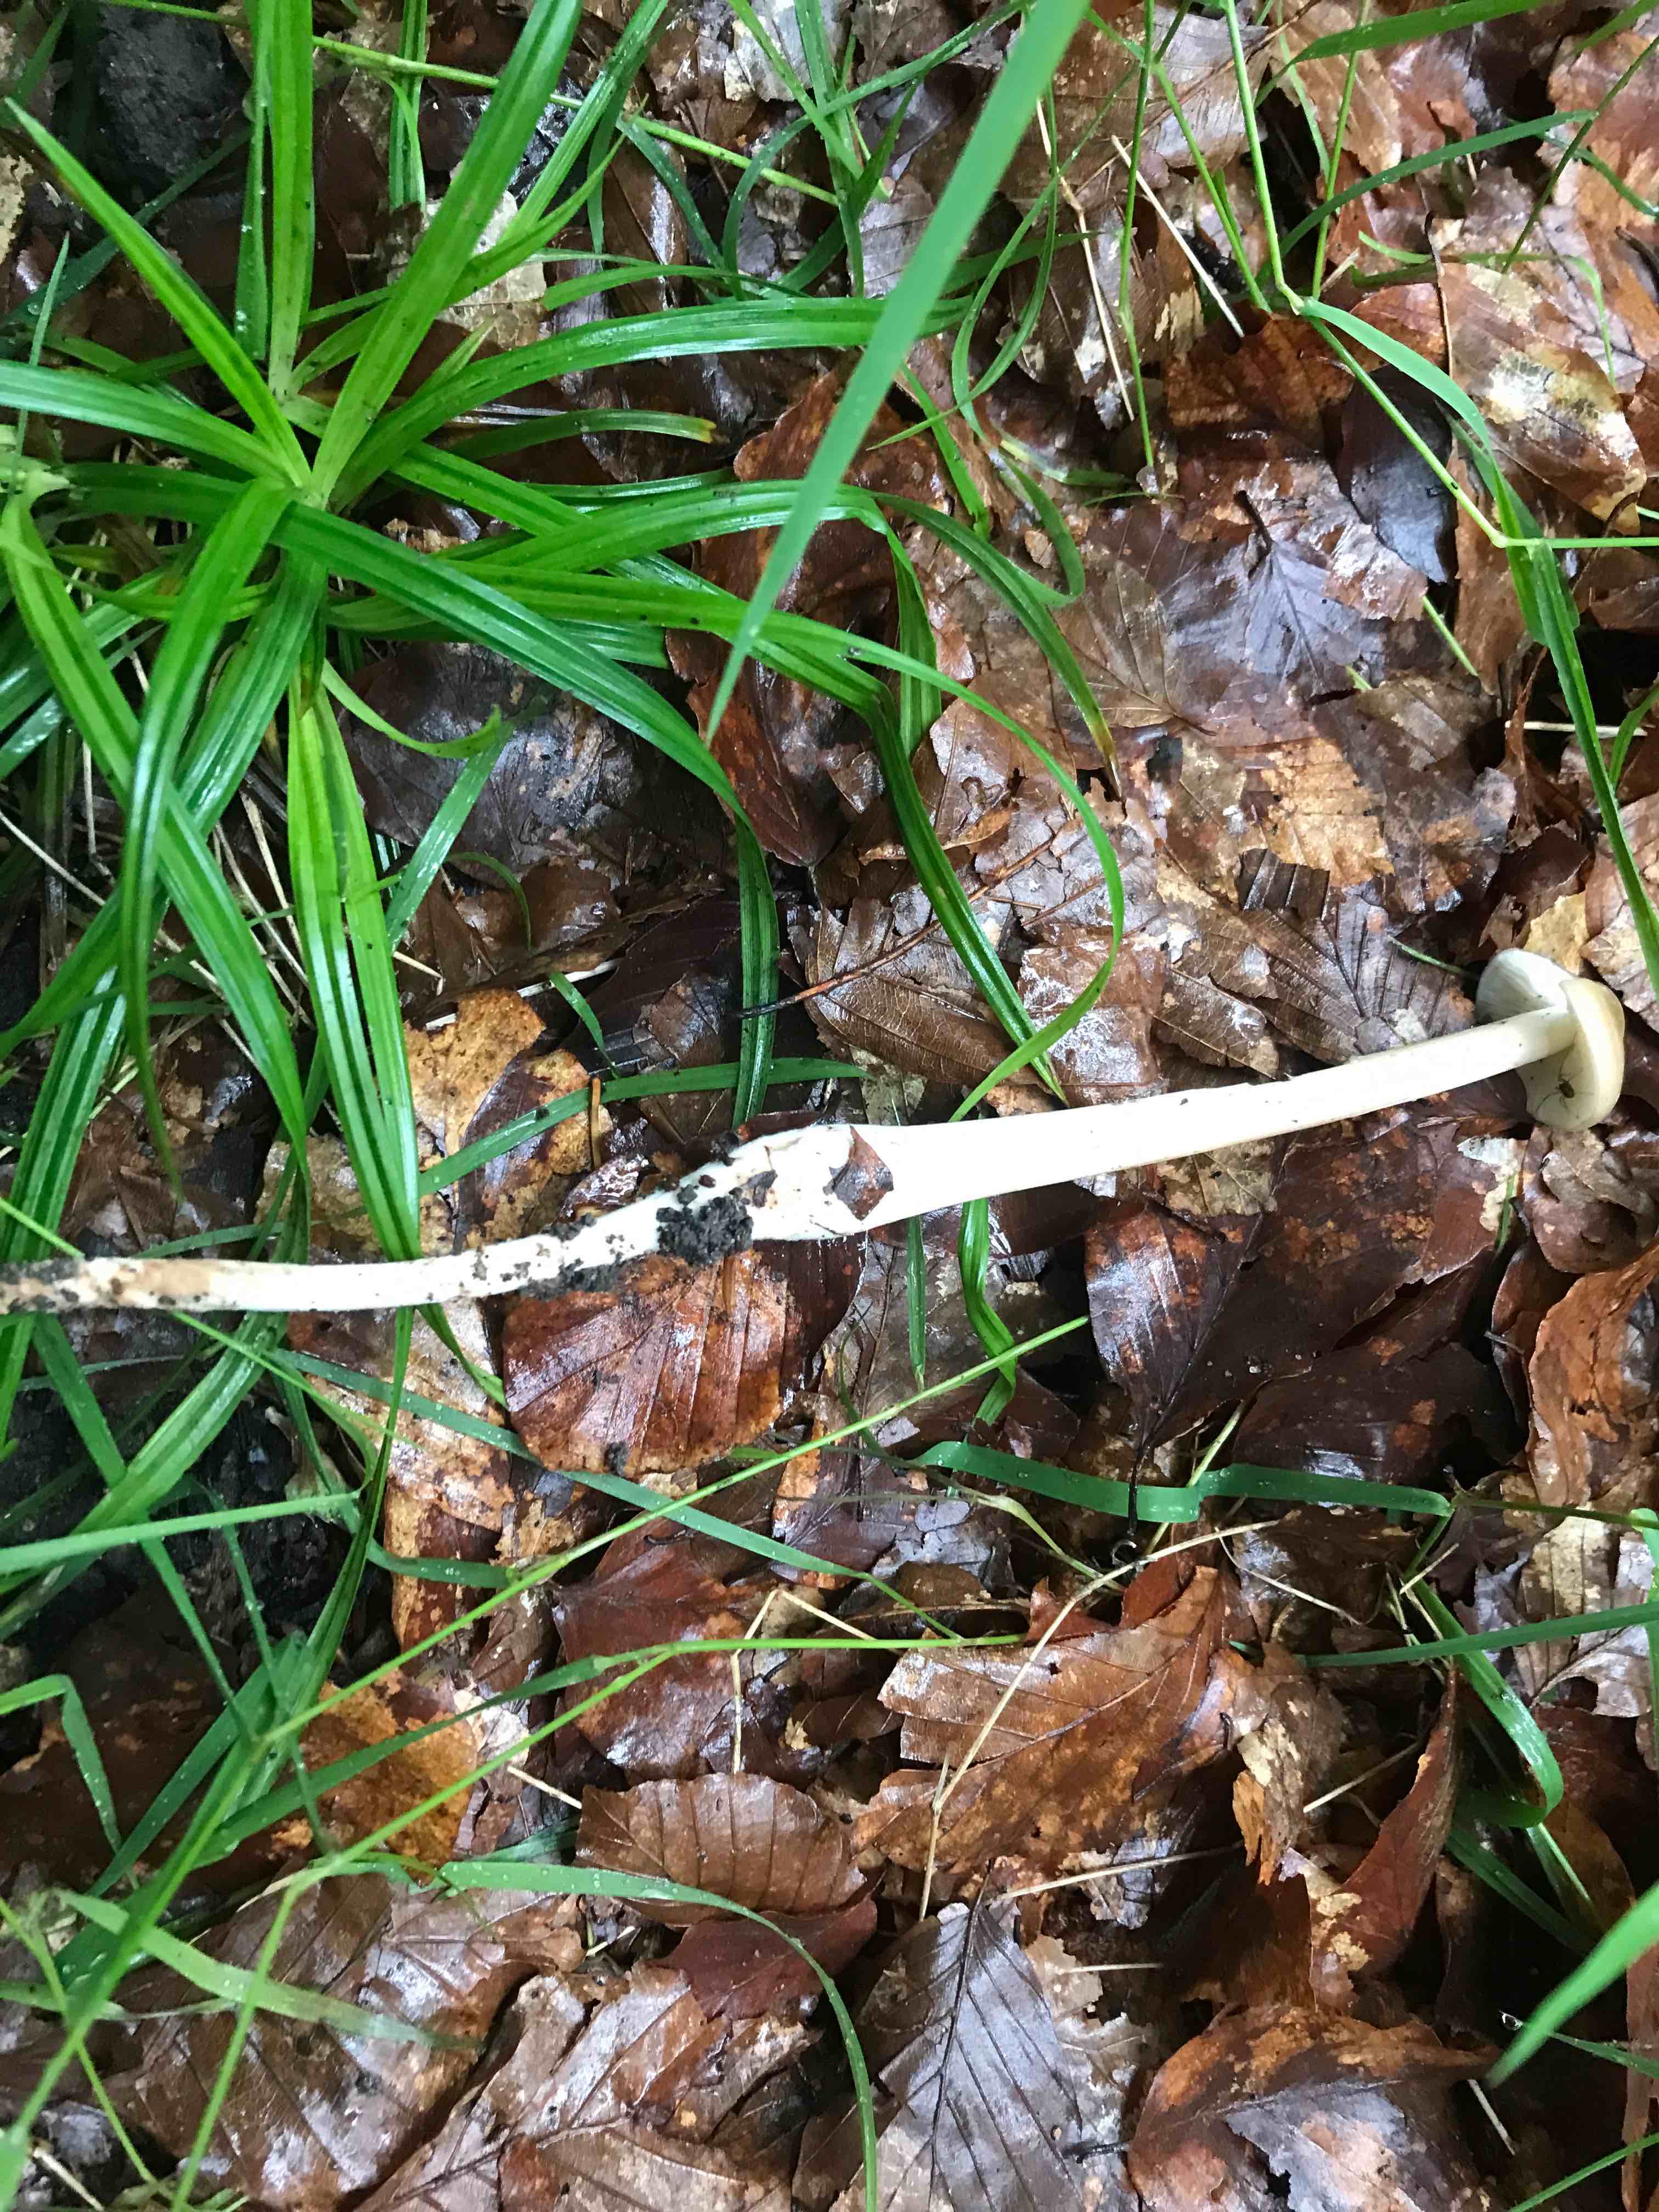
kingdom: Fungi
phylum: Basidiomycota
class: Agaricomycetes
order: Agaricales
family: Physalacriaceae
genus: Hymenopellis
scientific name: Hymenopellis radicata
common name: almindelig pælerodshat
